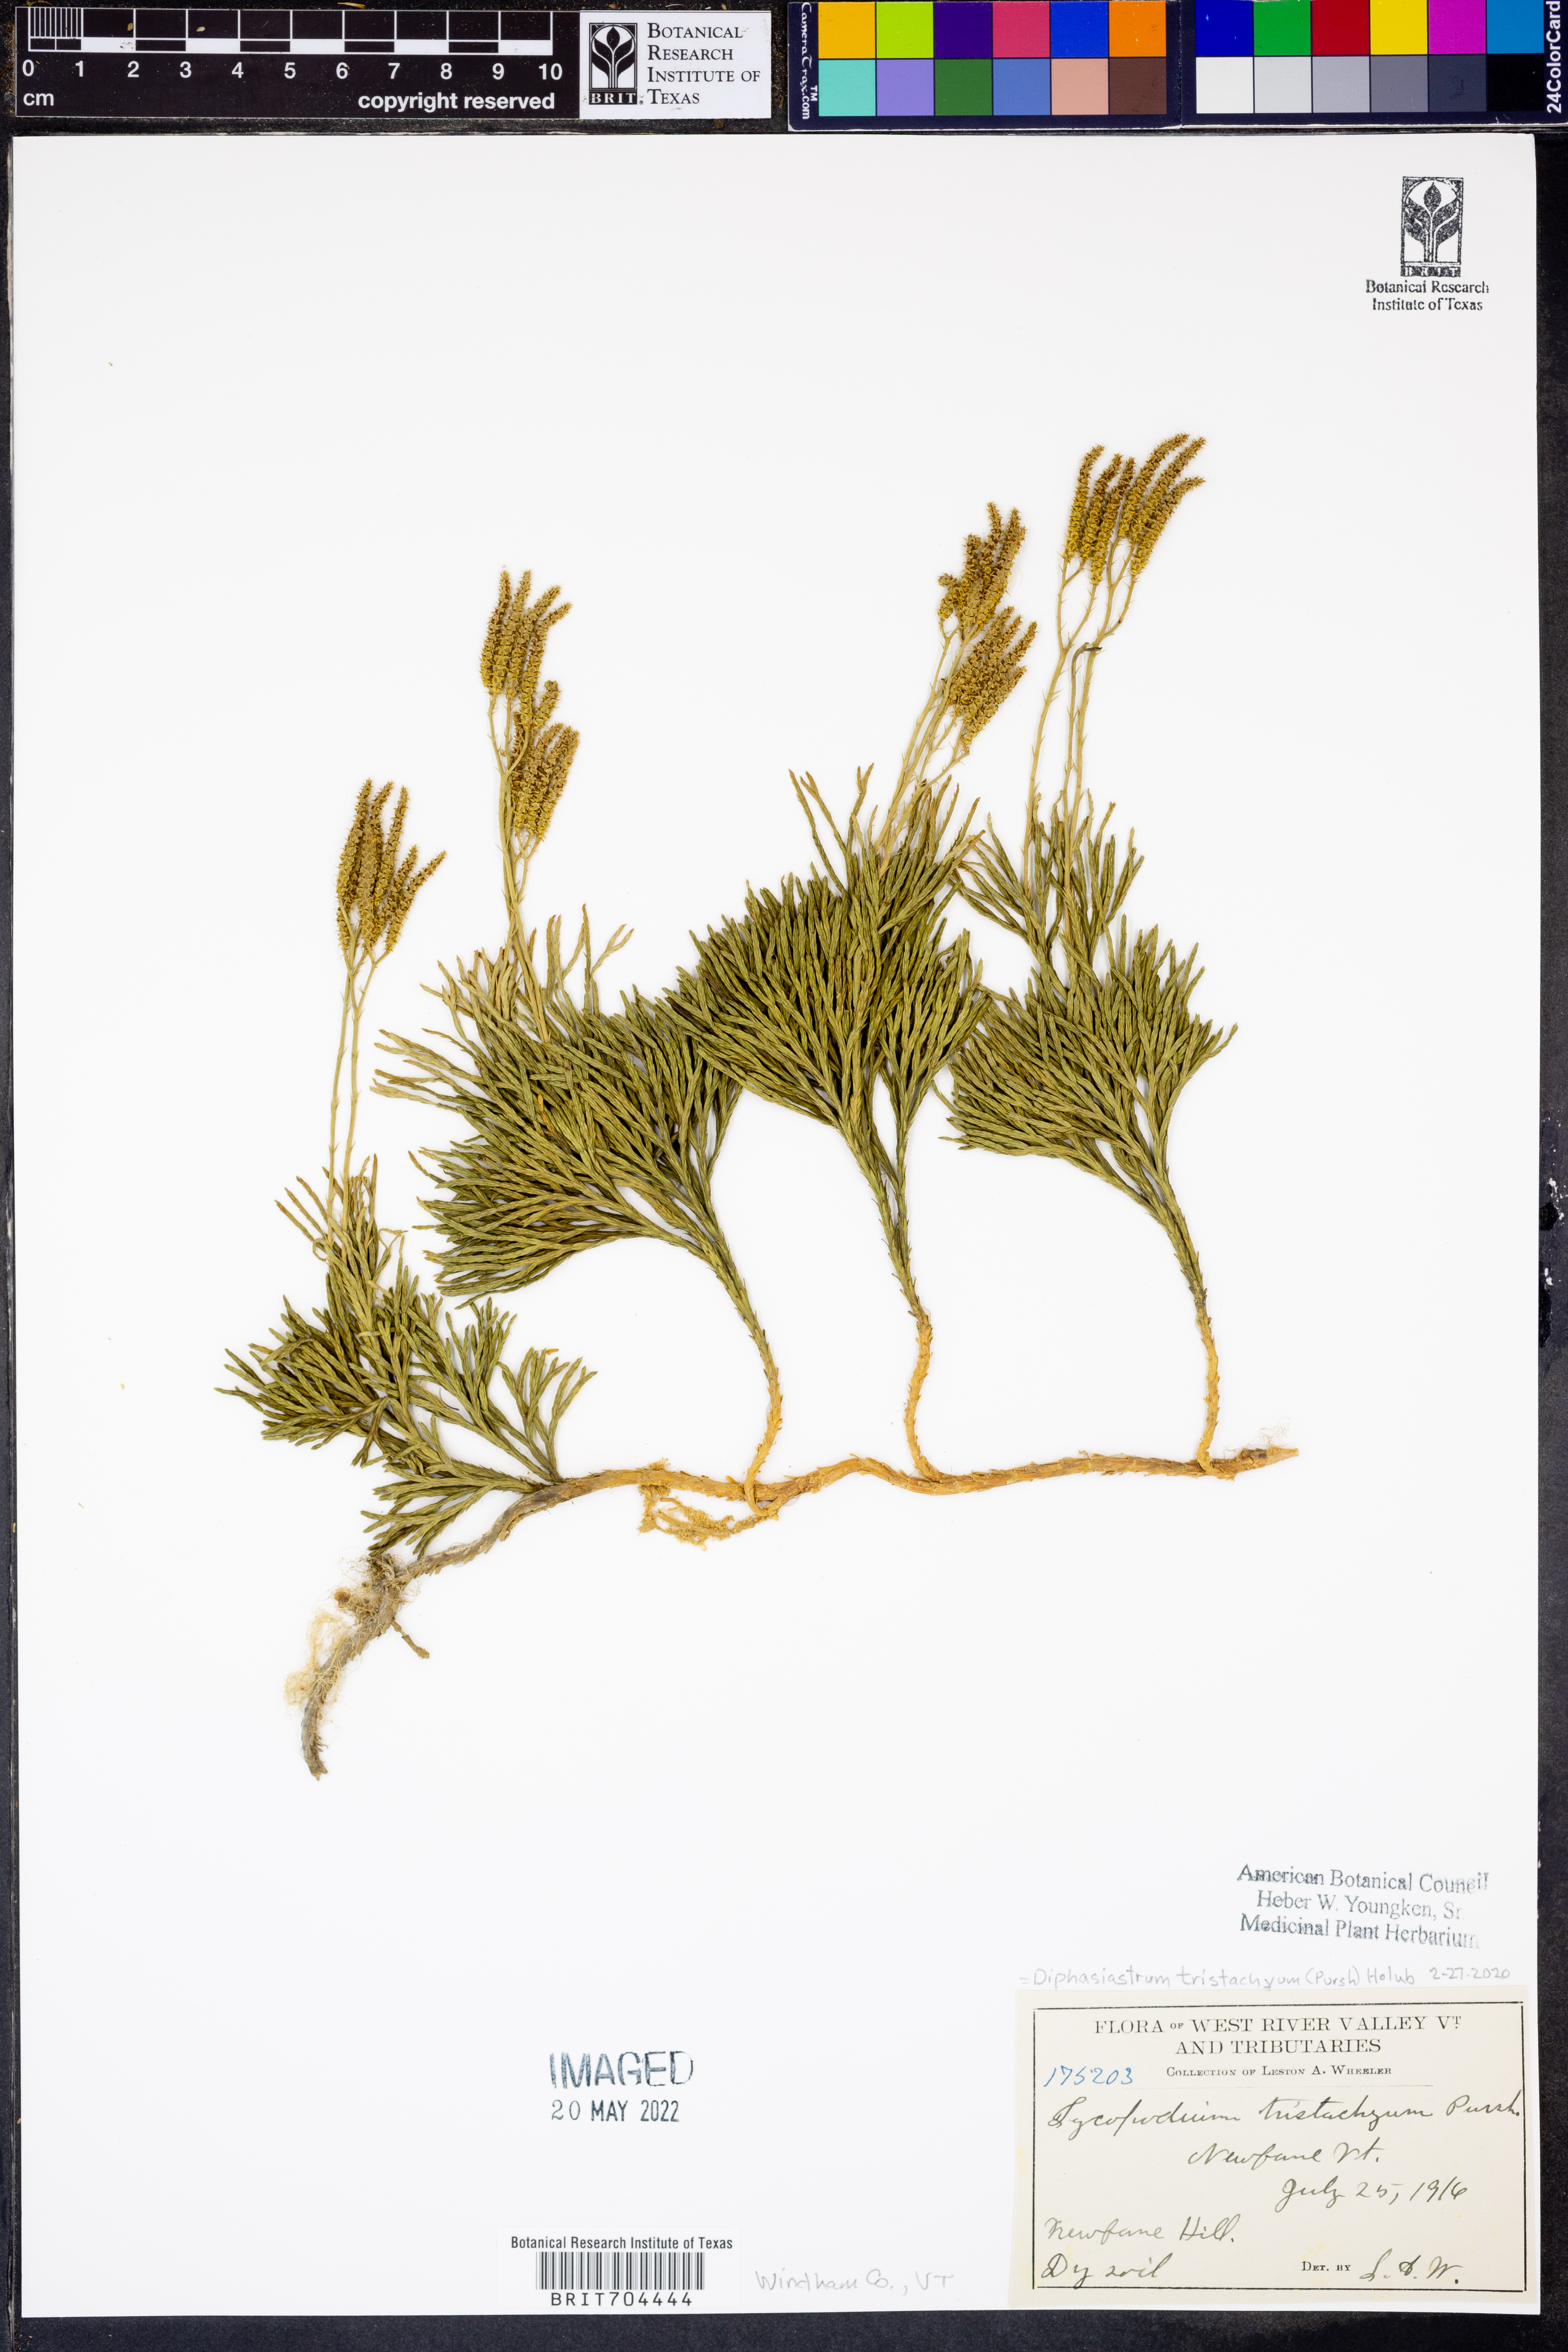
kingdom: Plantae
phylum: Tracheophyta
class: Lycopodiopsida
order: Lycopodiales
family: Lycopodiaceae
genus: Diphasiastrum
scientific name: Diphasiastrum tristachyum
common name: Blue ground-cedar
